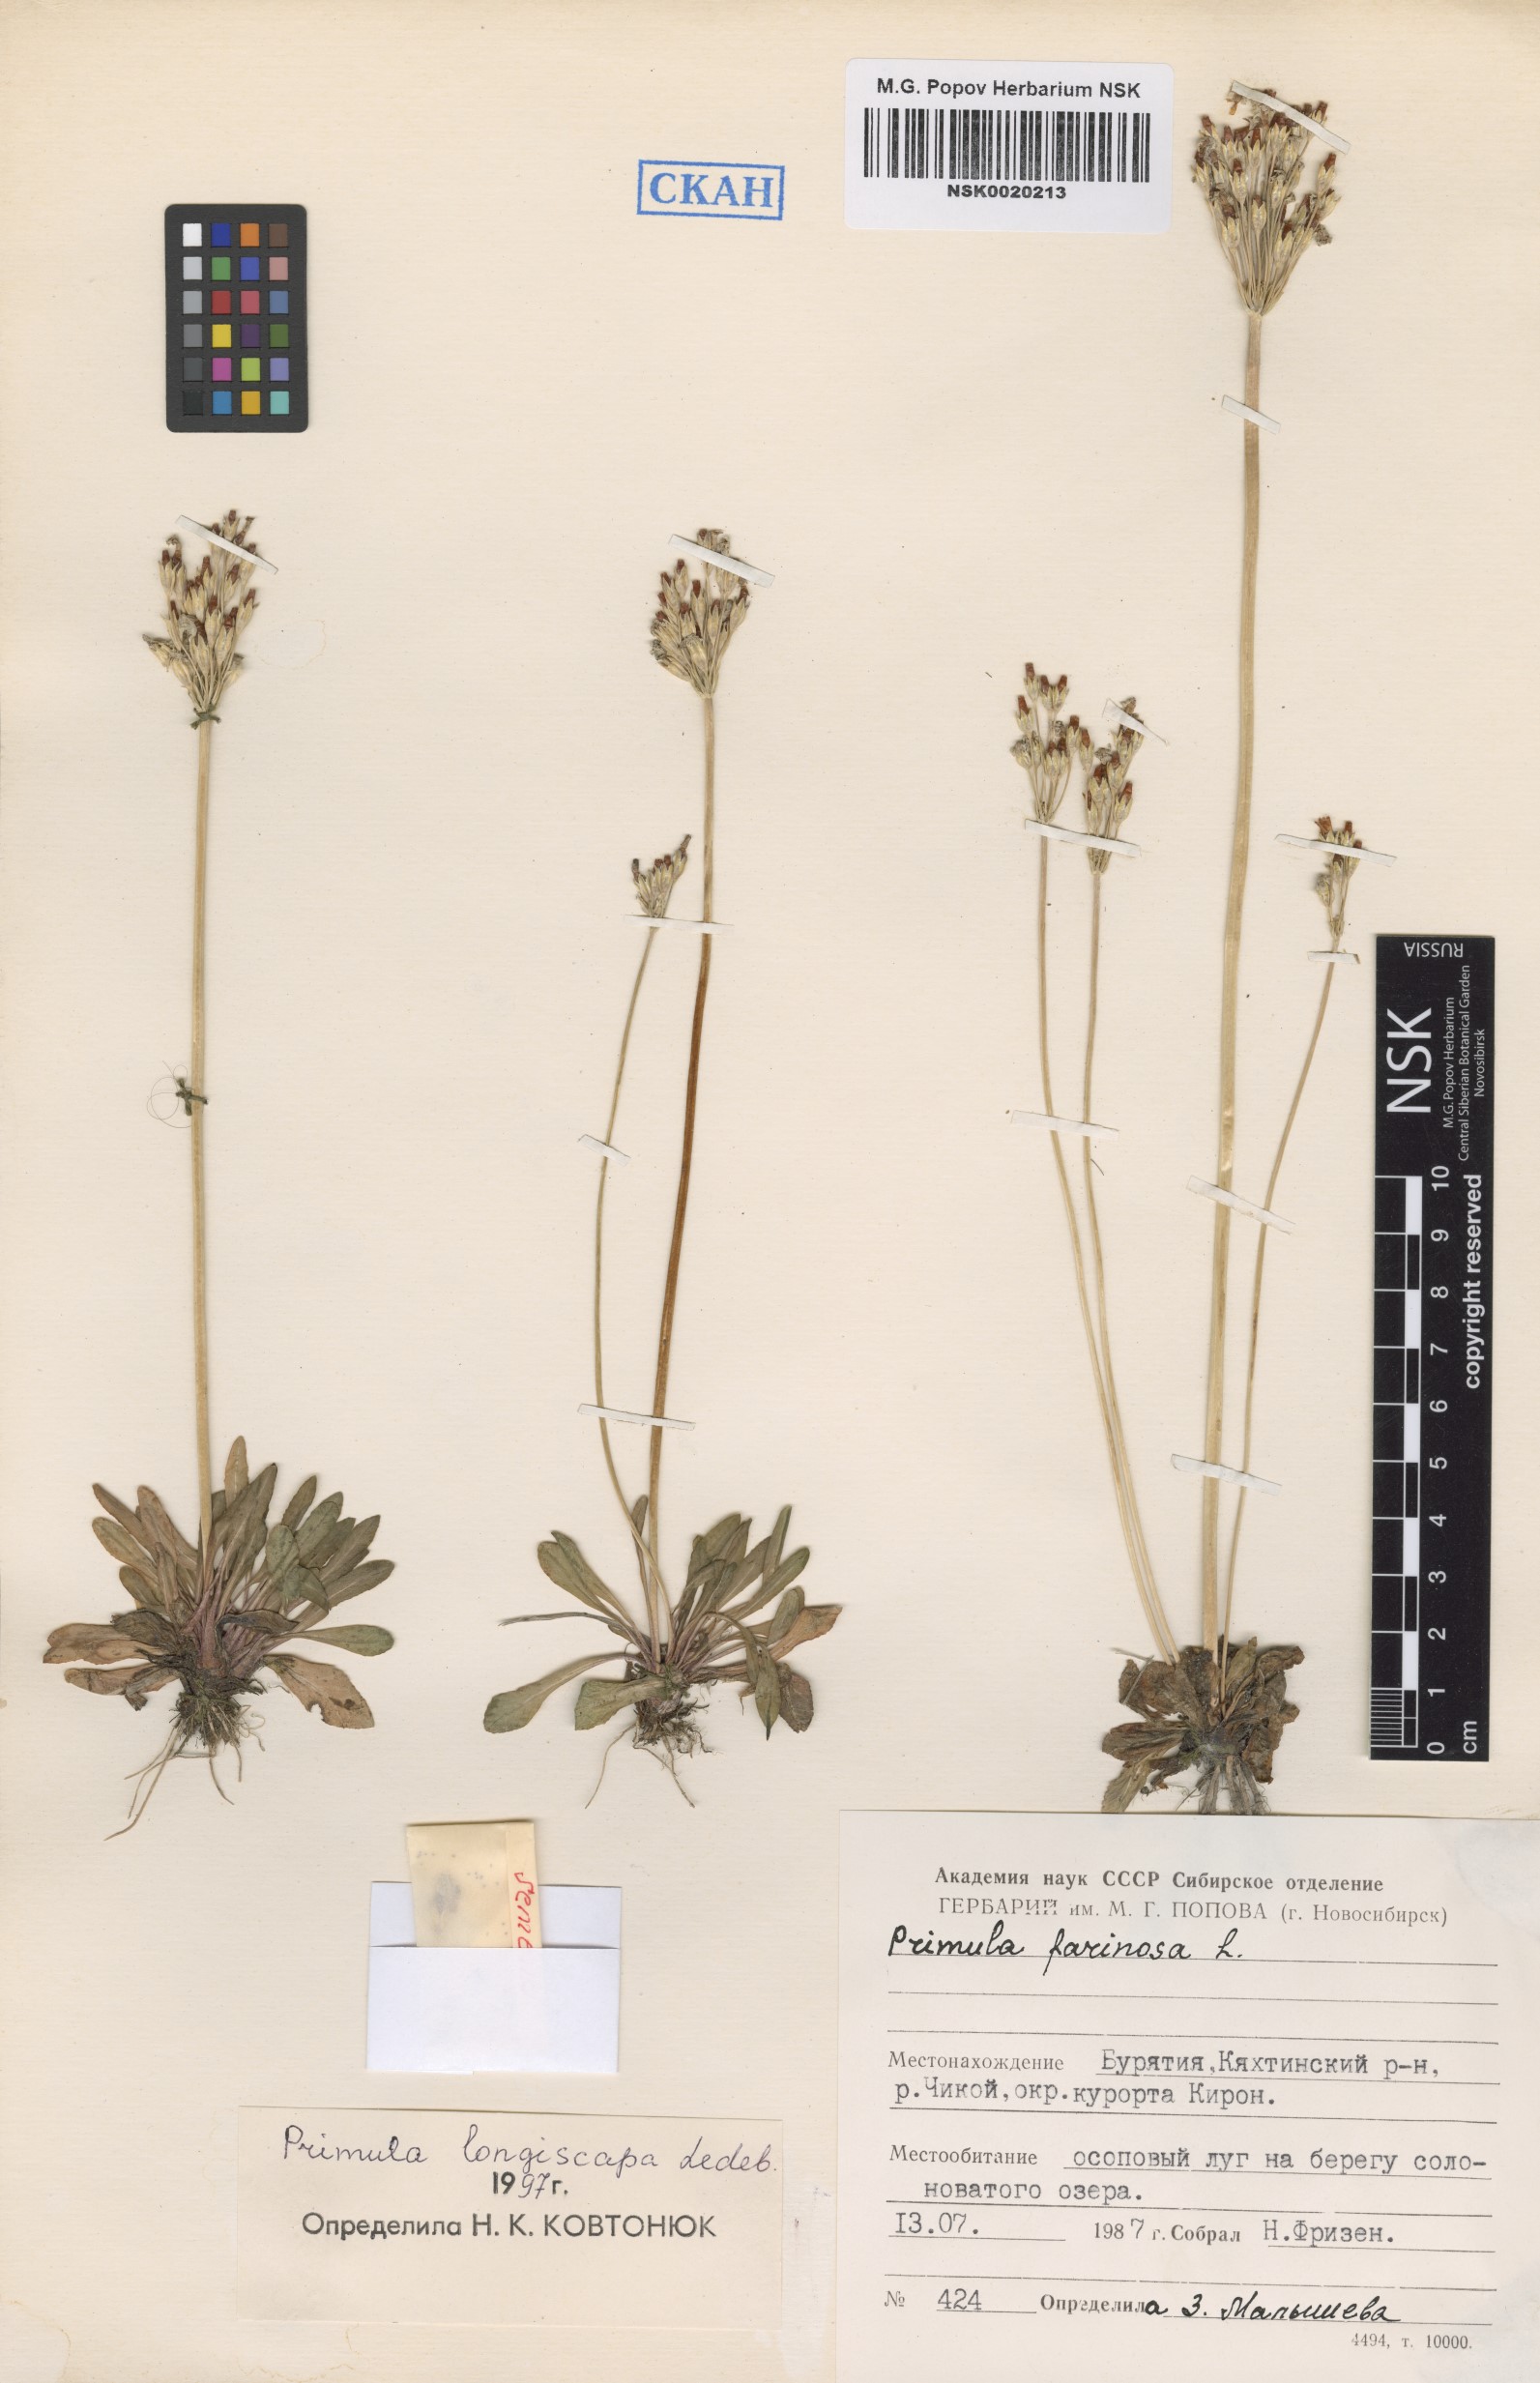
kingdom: Plantae
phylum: Tracheophyta
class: Magnoliopsida
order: Ericales
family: Primulaceae
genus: Primula
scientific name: Primula longiscapa
